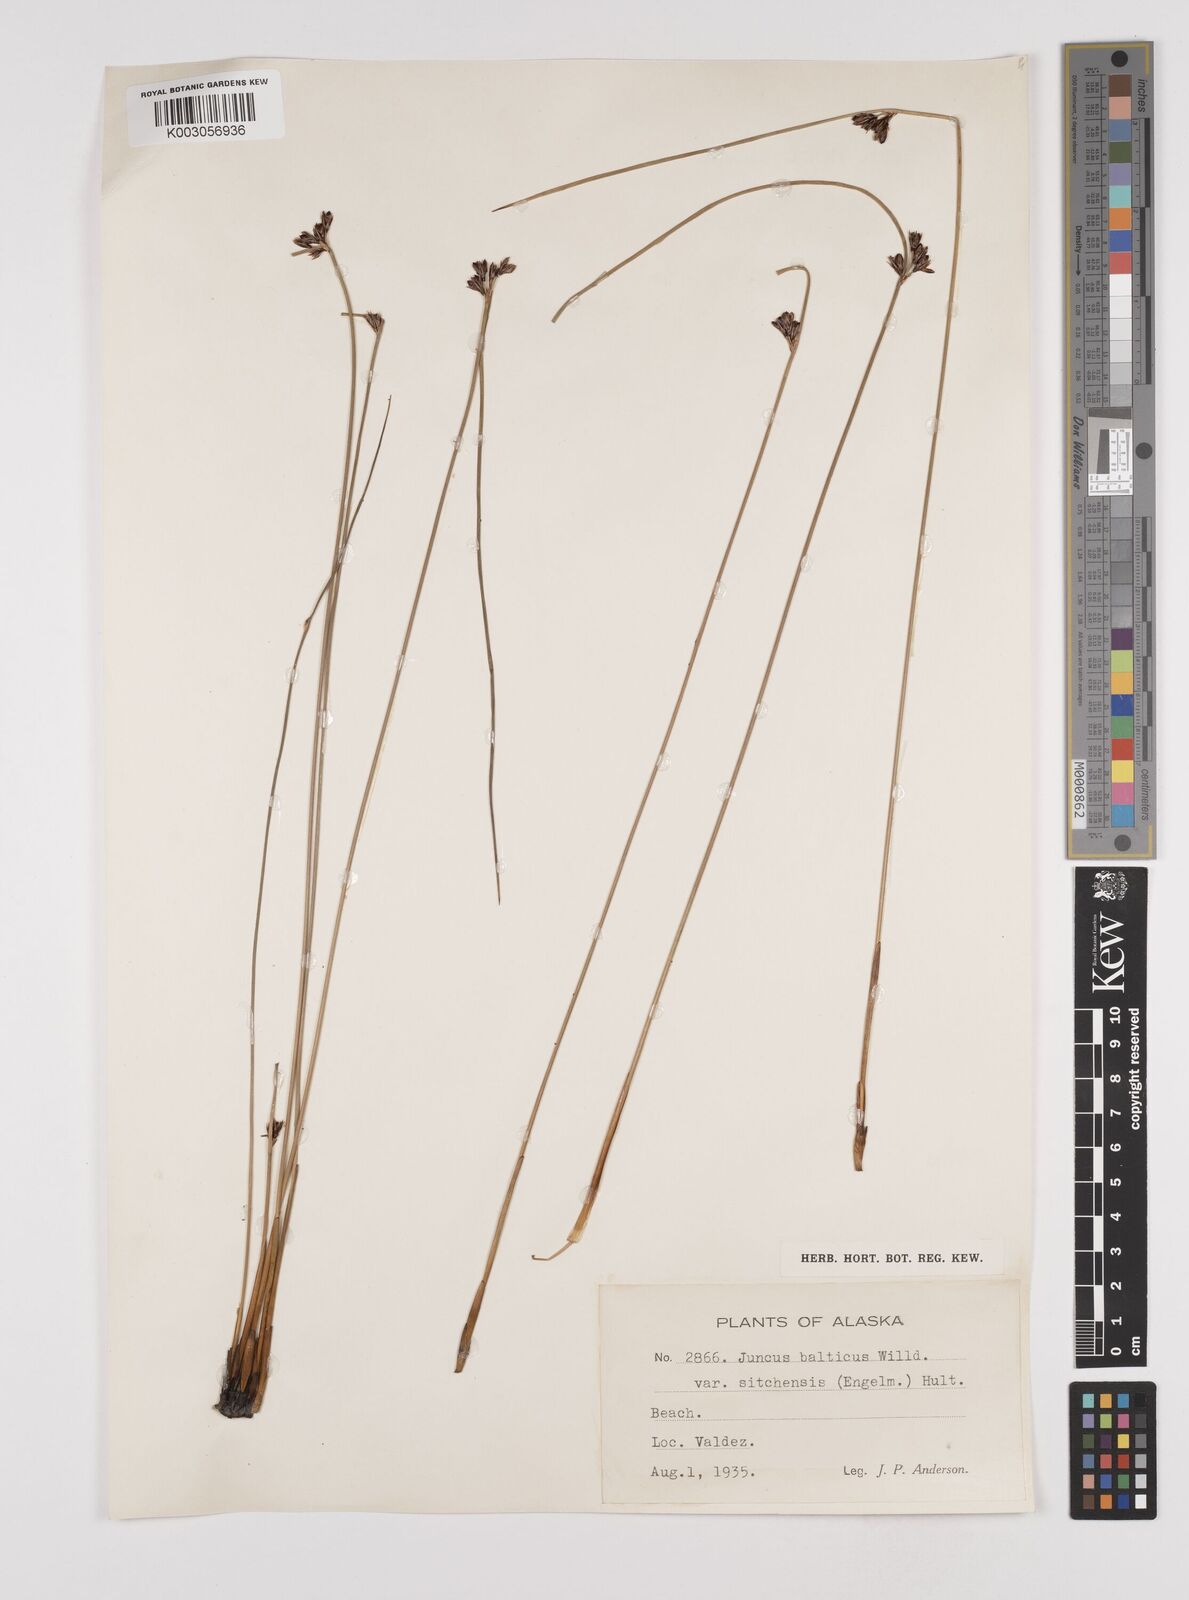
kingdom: Plantae
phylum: Tracheophyta
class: Liliopsida
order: Poales
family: Juncaceae
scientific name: Juncaceae
